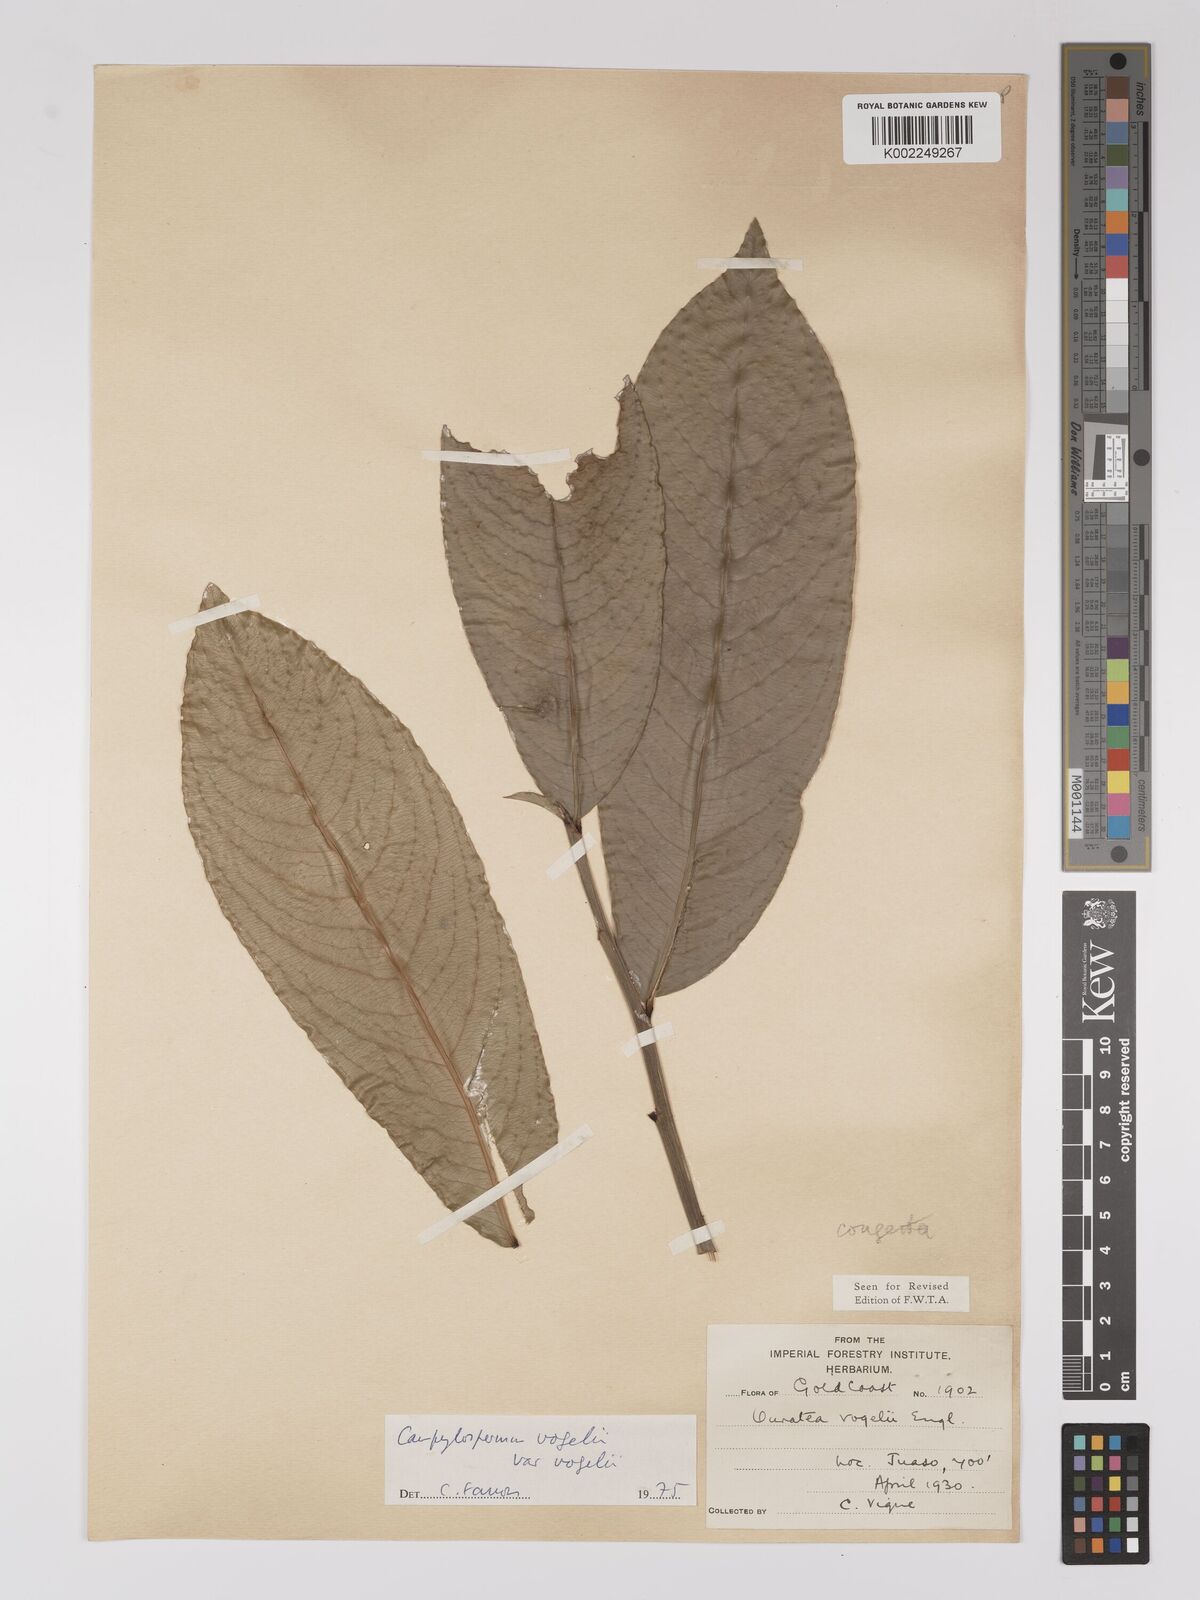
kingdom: Plantae
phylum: Tracheophyta
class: Magnoliopsida
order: Malpighiales
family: Ochnaceae
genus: Campylospermum
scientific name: Campylospermum vogelii
